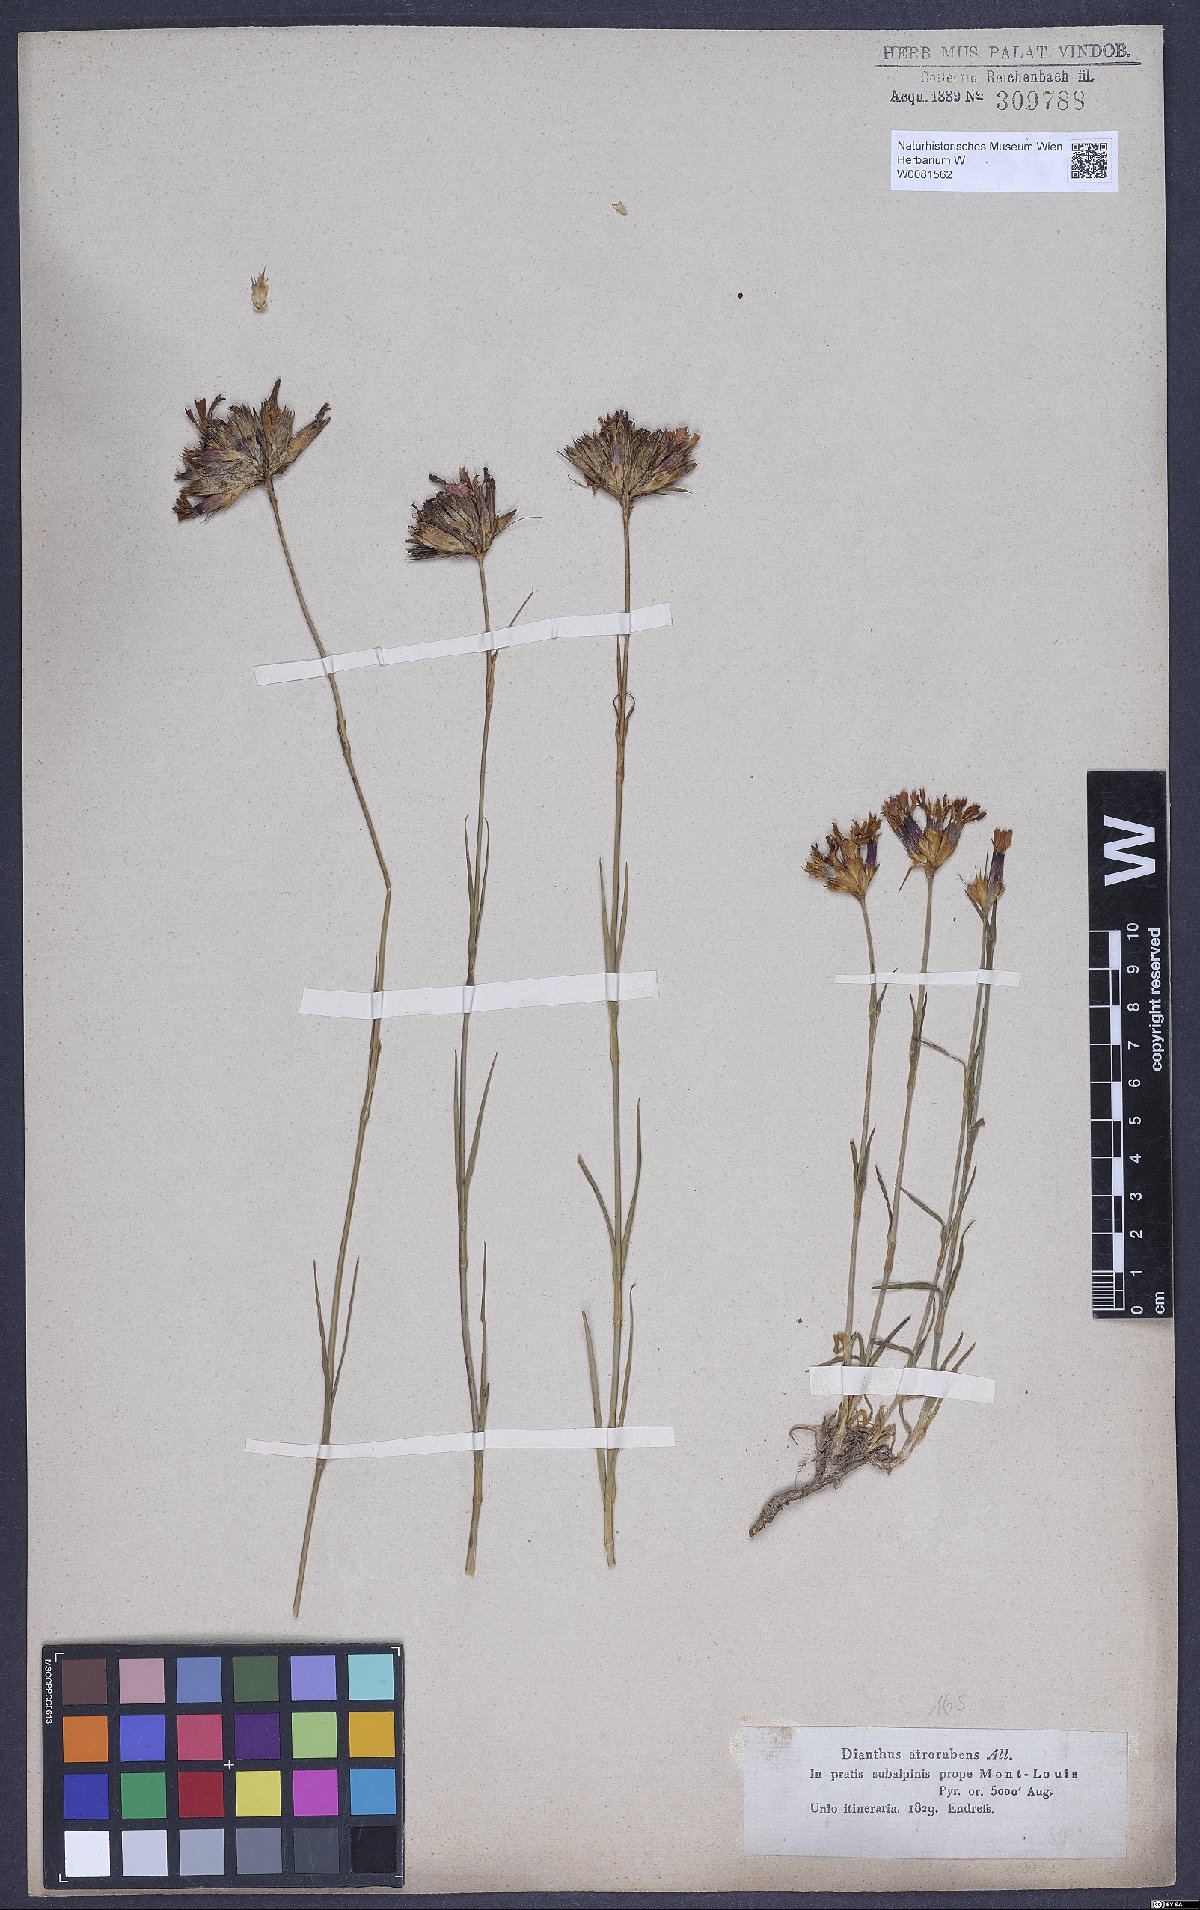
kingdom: Plantae
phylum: Tracheophyta
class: Magnoliopsida
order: Caryophyllales
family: Caryophyllaceae
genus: Dianthus
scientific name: Dianthus carthusianorum
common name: Carthusian pink
